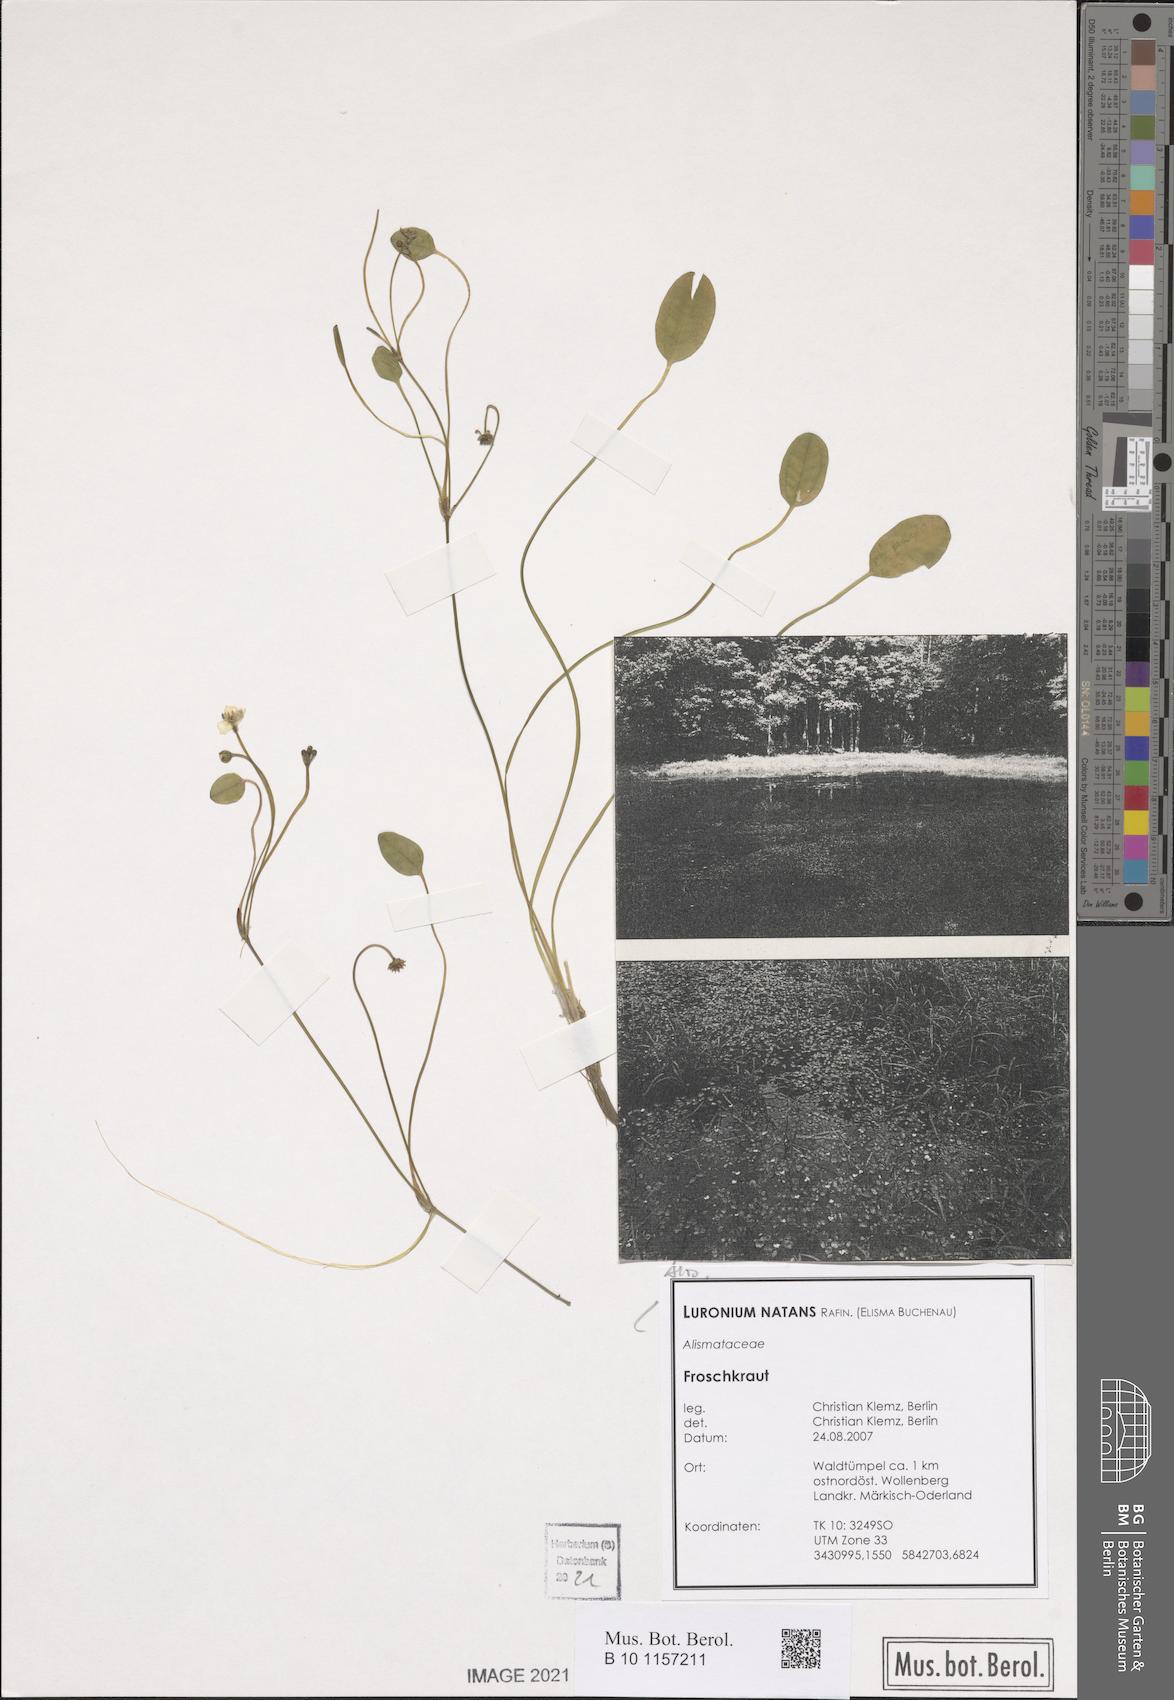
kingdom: Plantae
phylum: Tracheophyta
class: Liliopsida
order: Alismatales
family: Alismataceae
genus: Luronium
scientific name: Luronium natans
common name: Floating water-plantain
